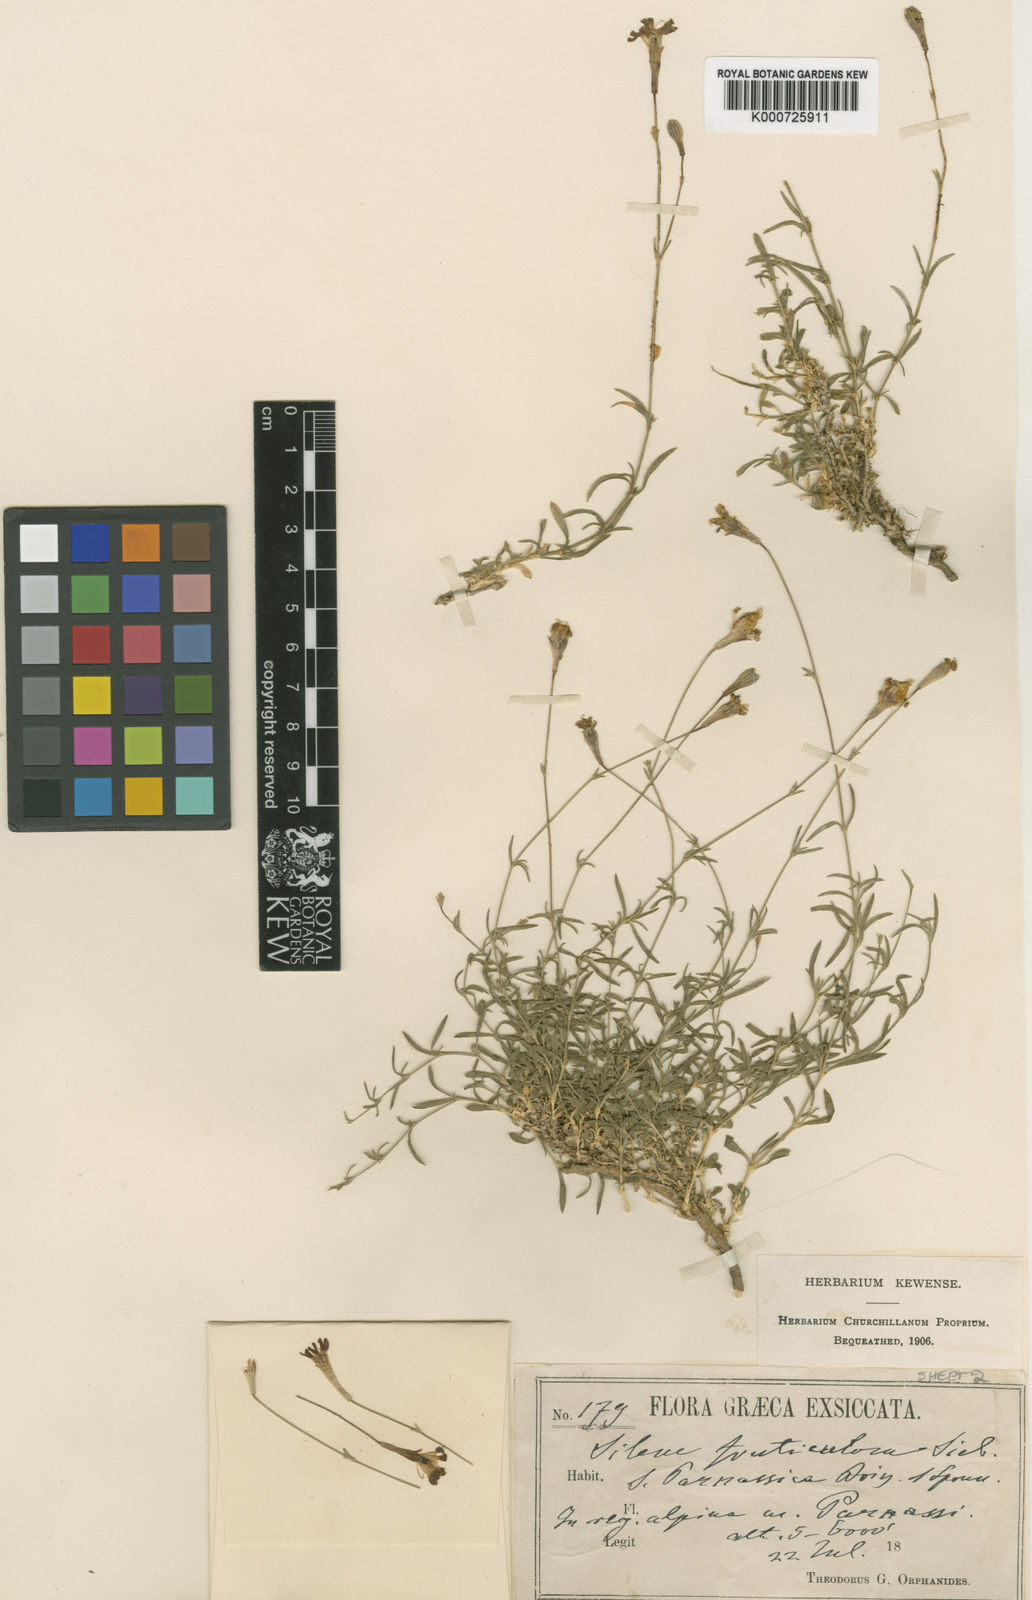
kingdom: Plantae
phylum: Tracheophyta
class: Magnoliopsida
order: Caryophyllales
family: Caryophyllaceae
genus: Silene
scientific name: Silene saxifraga
